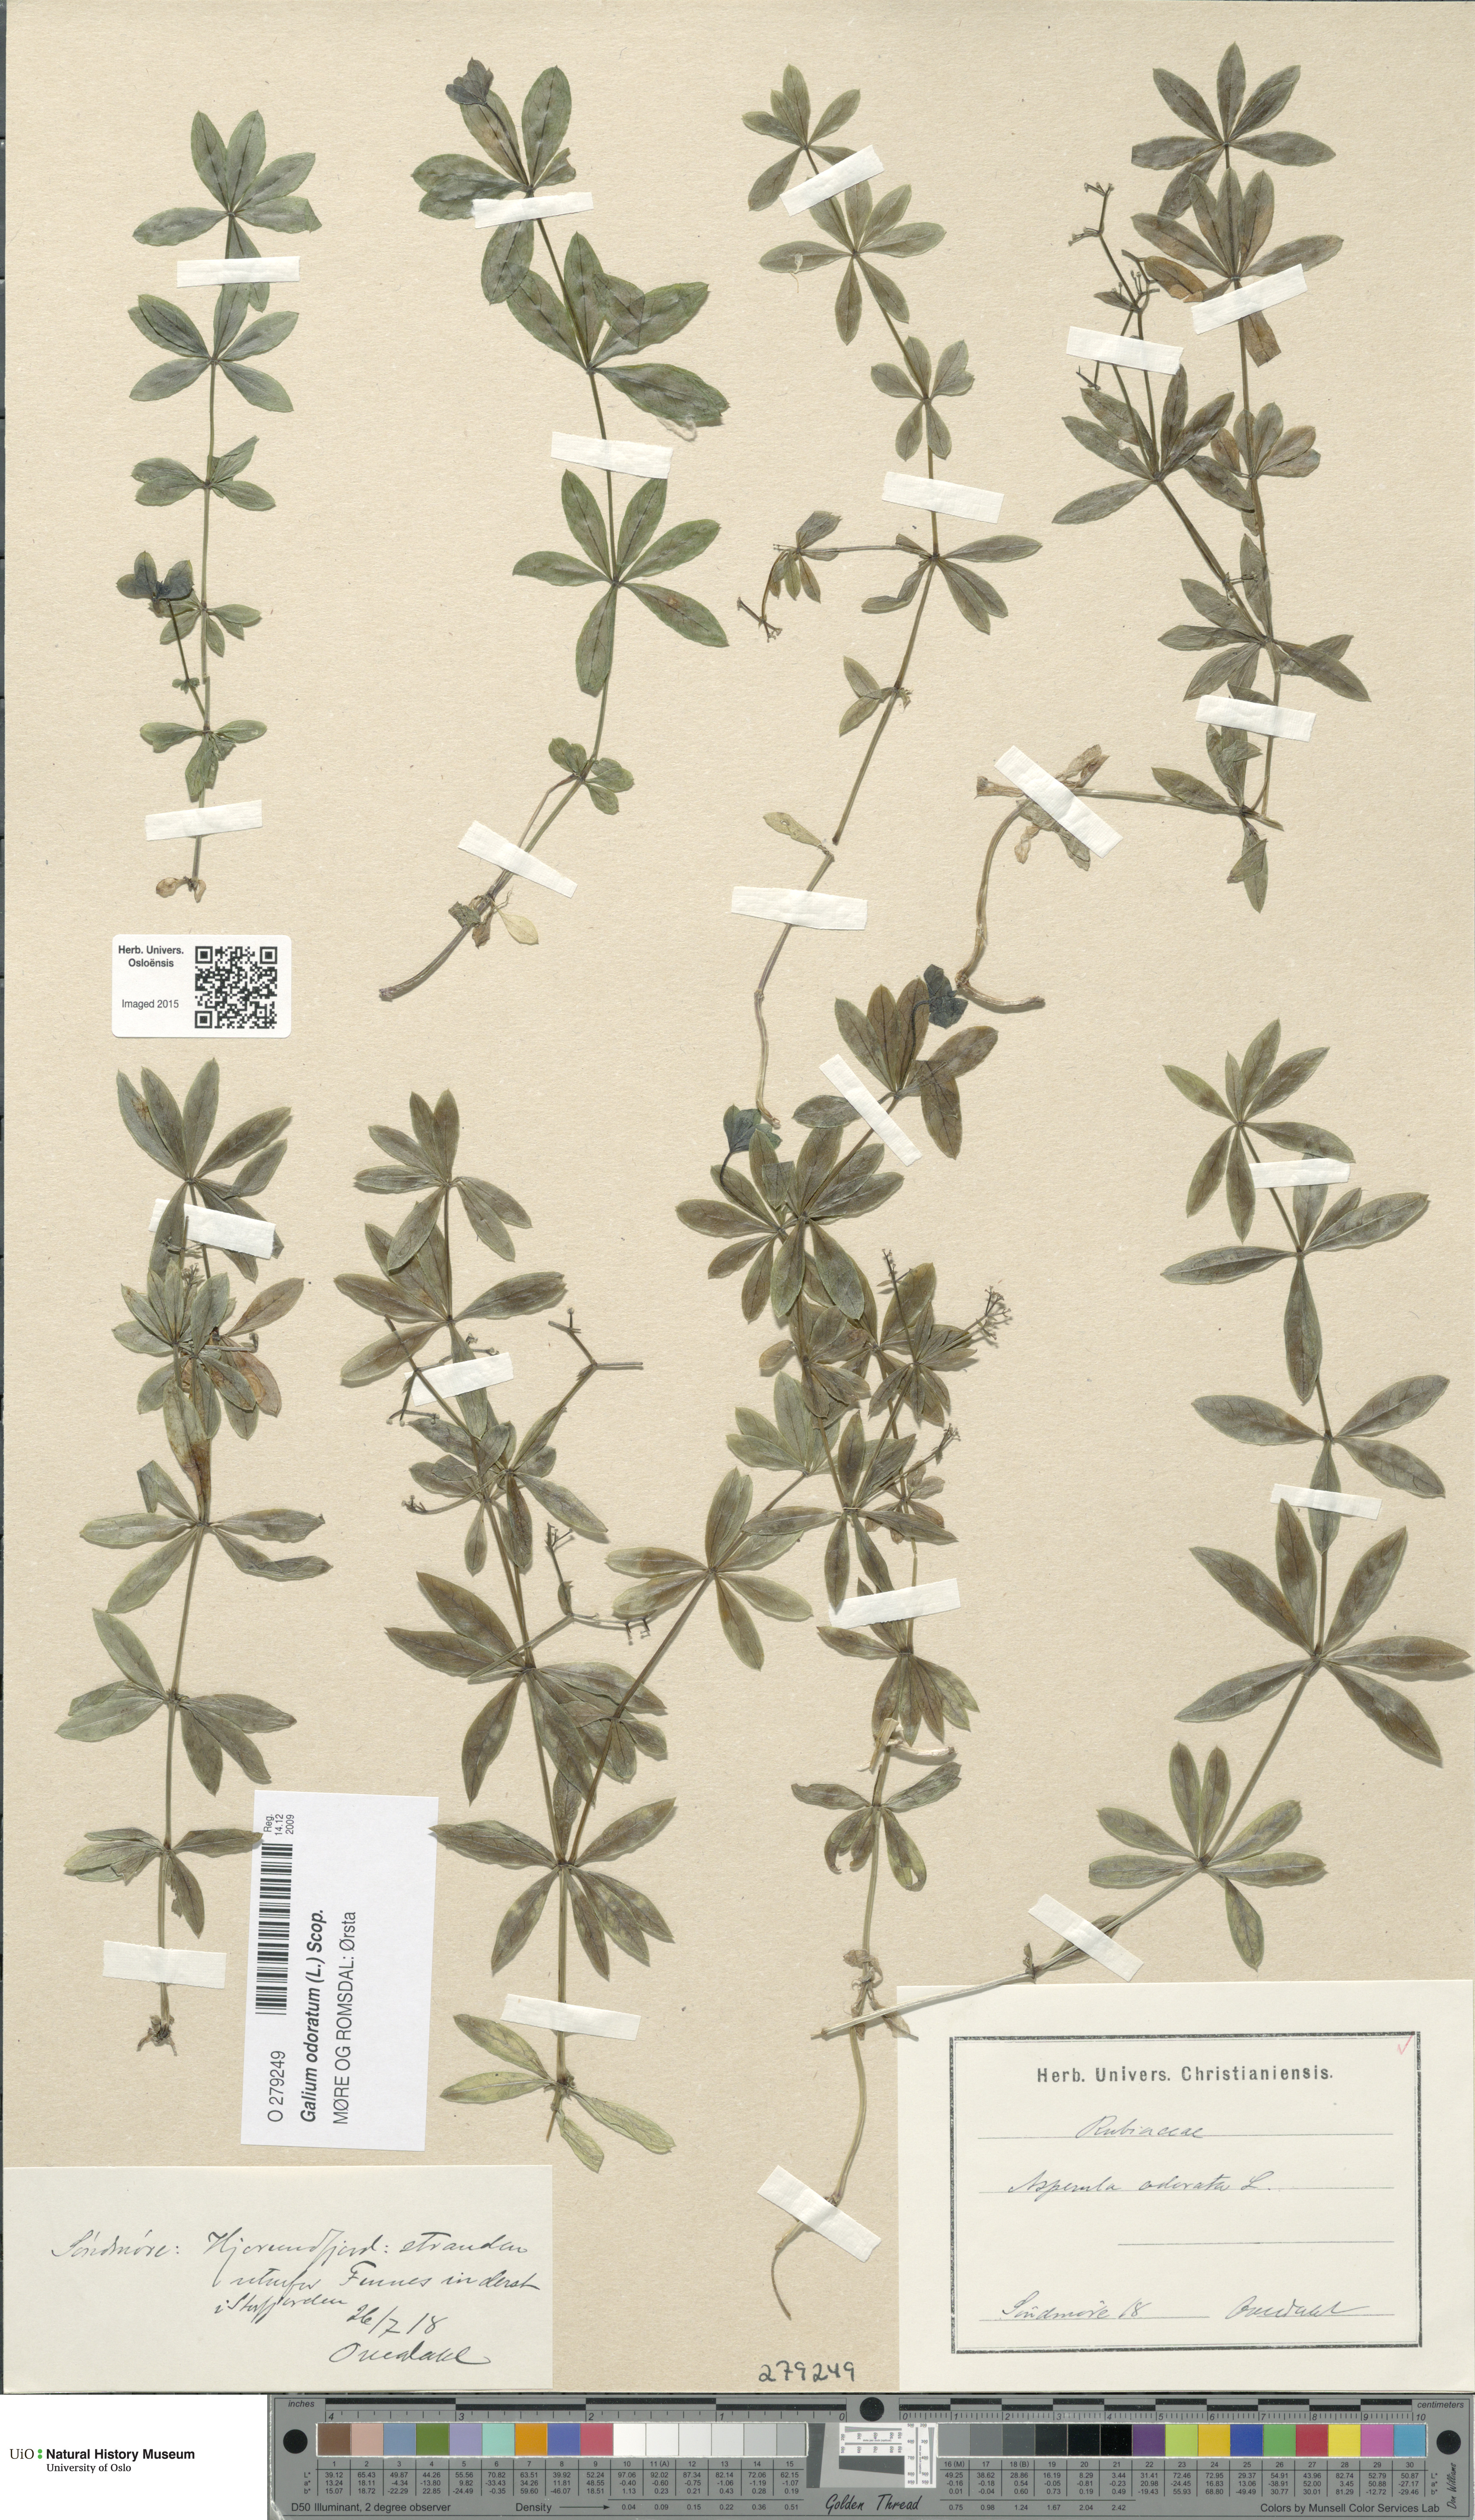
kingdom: Plantae
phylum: Tracheophyta
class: Magnoliopsida
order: Gentianales
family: Rubiaceae
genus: Galium
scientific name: Galium odoratum
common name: Sweet woodruff
